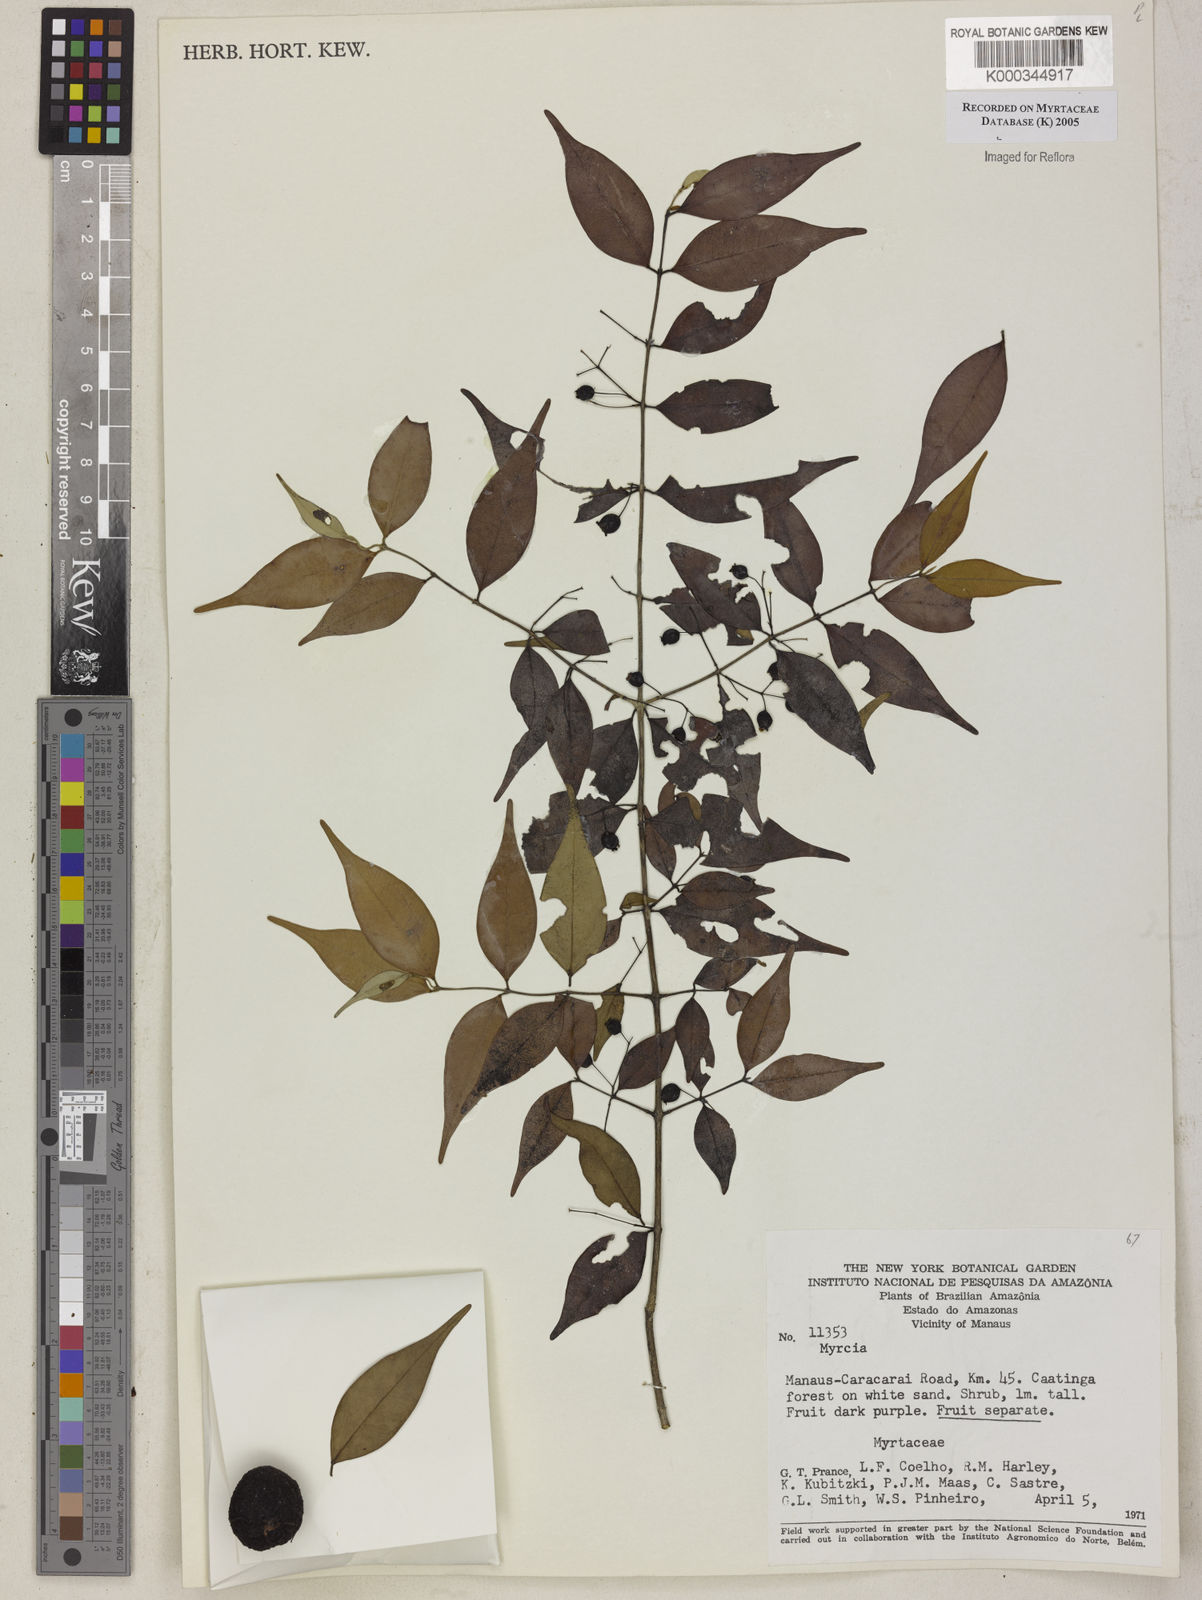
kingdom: Plantae
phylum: Tracheophyta
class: Magnoliopsida
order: Myrtales
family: Myrtaceae
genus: Myrcia
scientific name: Myrcia
